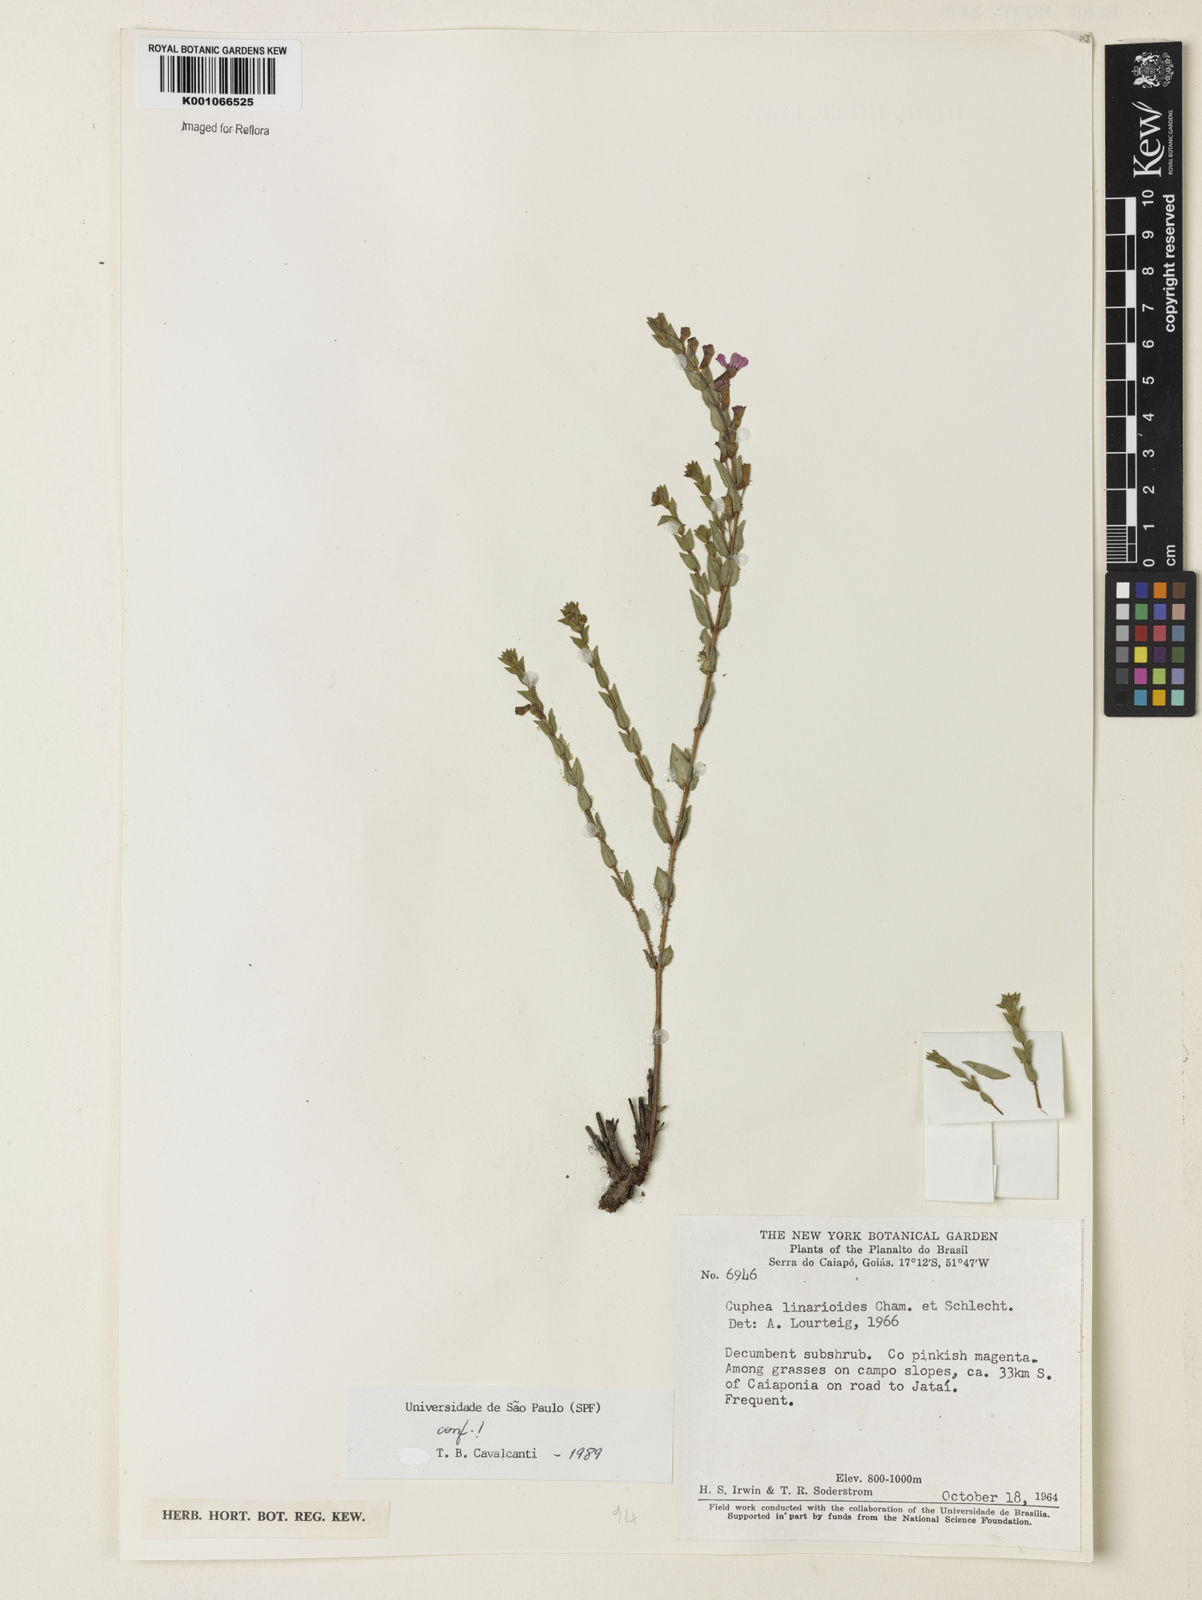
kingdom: Plantae
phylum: Tracheophyta
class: Magnoliopsida
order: Myrtales
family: Lythraceae
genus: Cuphea
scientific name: Cuphea linarioides
